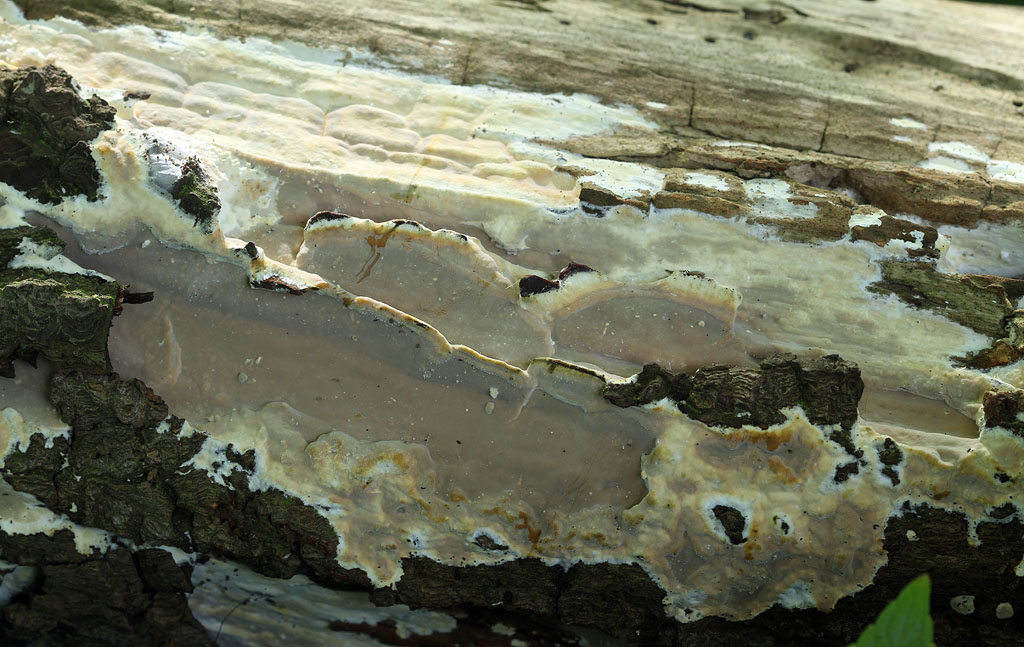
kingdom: Fungi
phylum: Basidiomycota
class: Agaricomycetes
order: Russulales
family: Peniophoraceae
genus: Scytinostroma
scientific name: Scytinostroma hemidichophyticum
